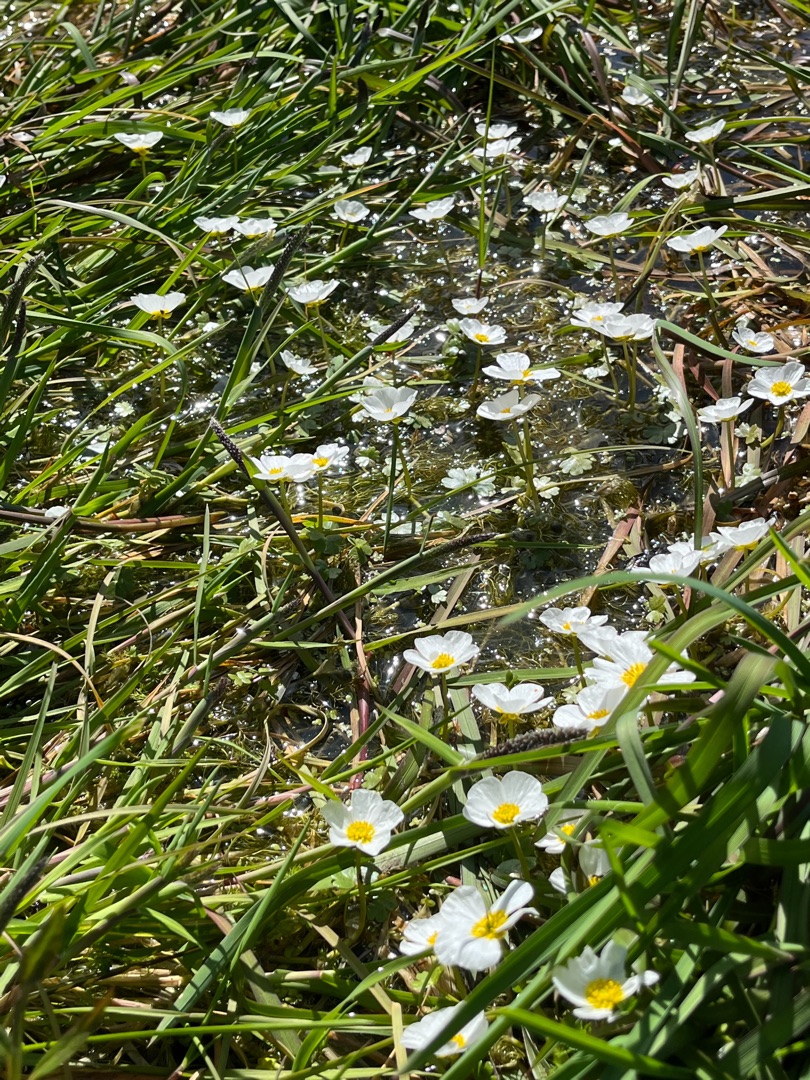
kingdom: Plantae
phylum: Tracheophyta
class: Magnoliopsida
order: Ranunculales
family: Ranunculaceae
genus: Ranunculus
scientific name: Ranunculus peltatus
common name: Storblomstret vandranunkel
